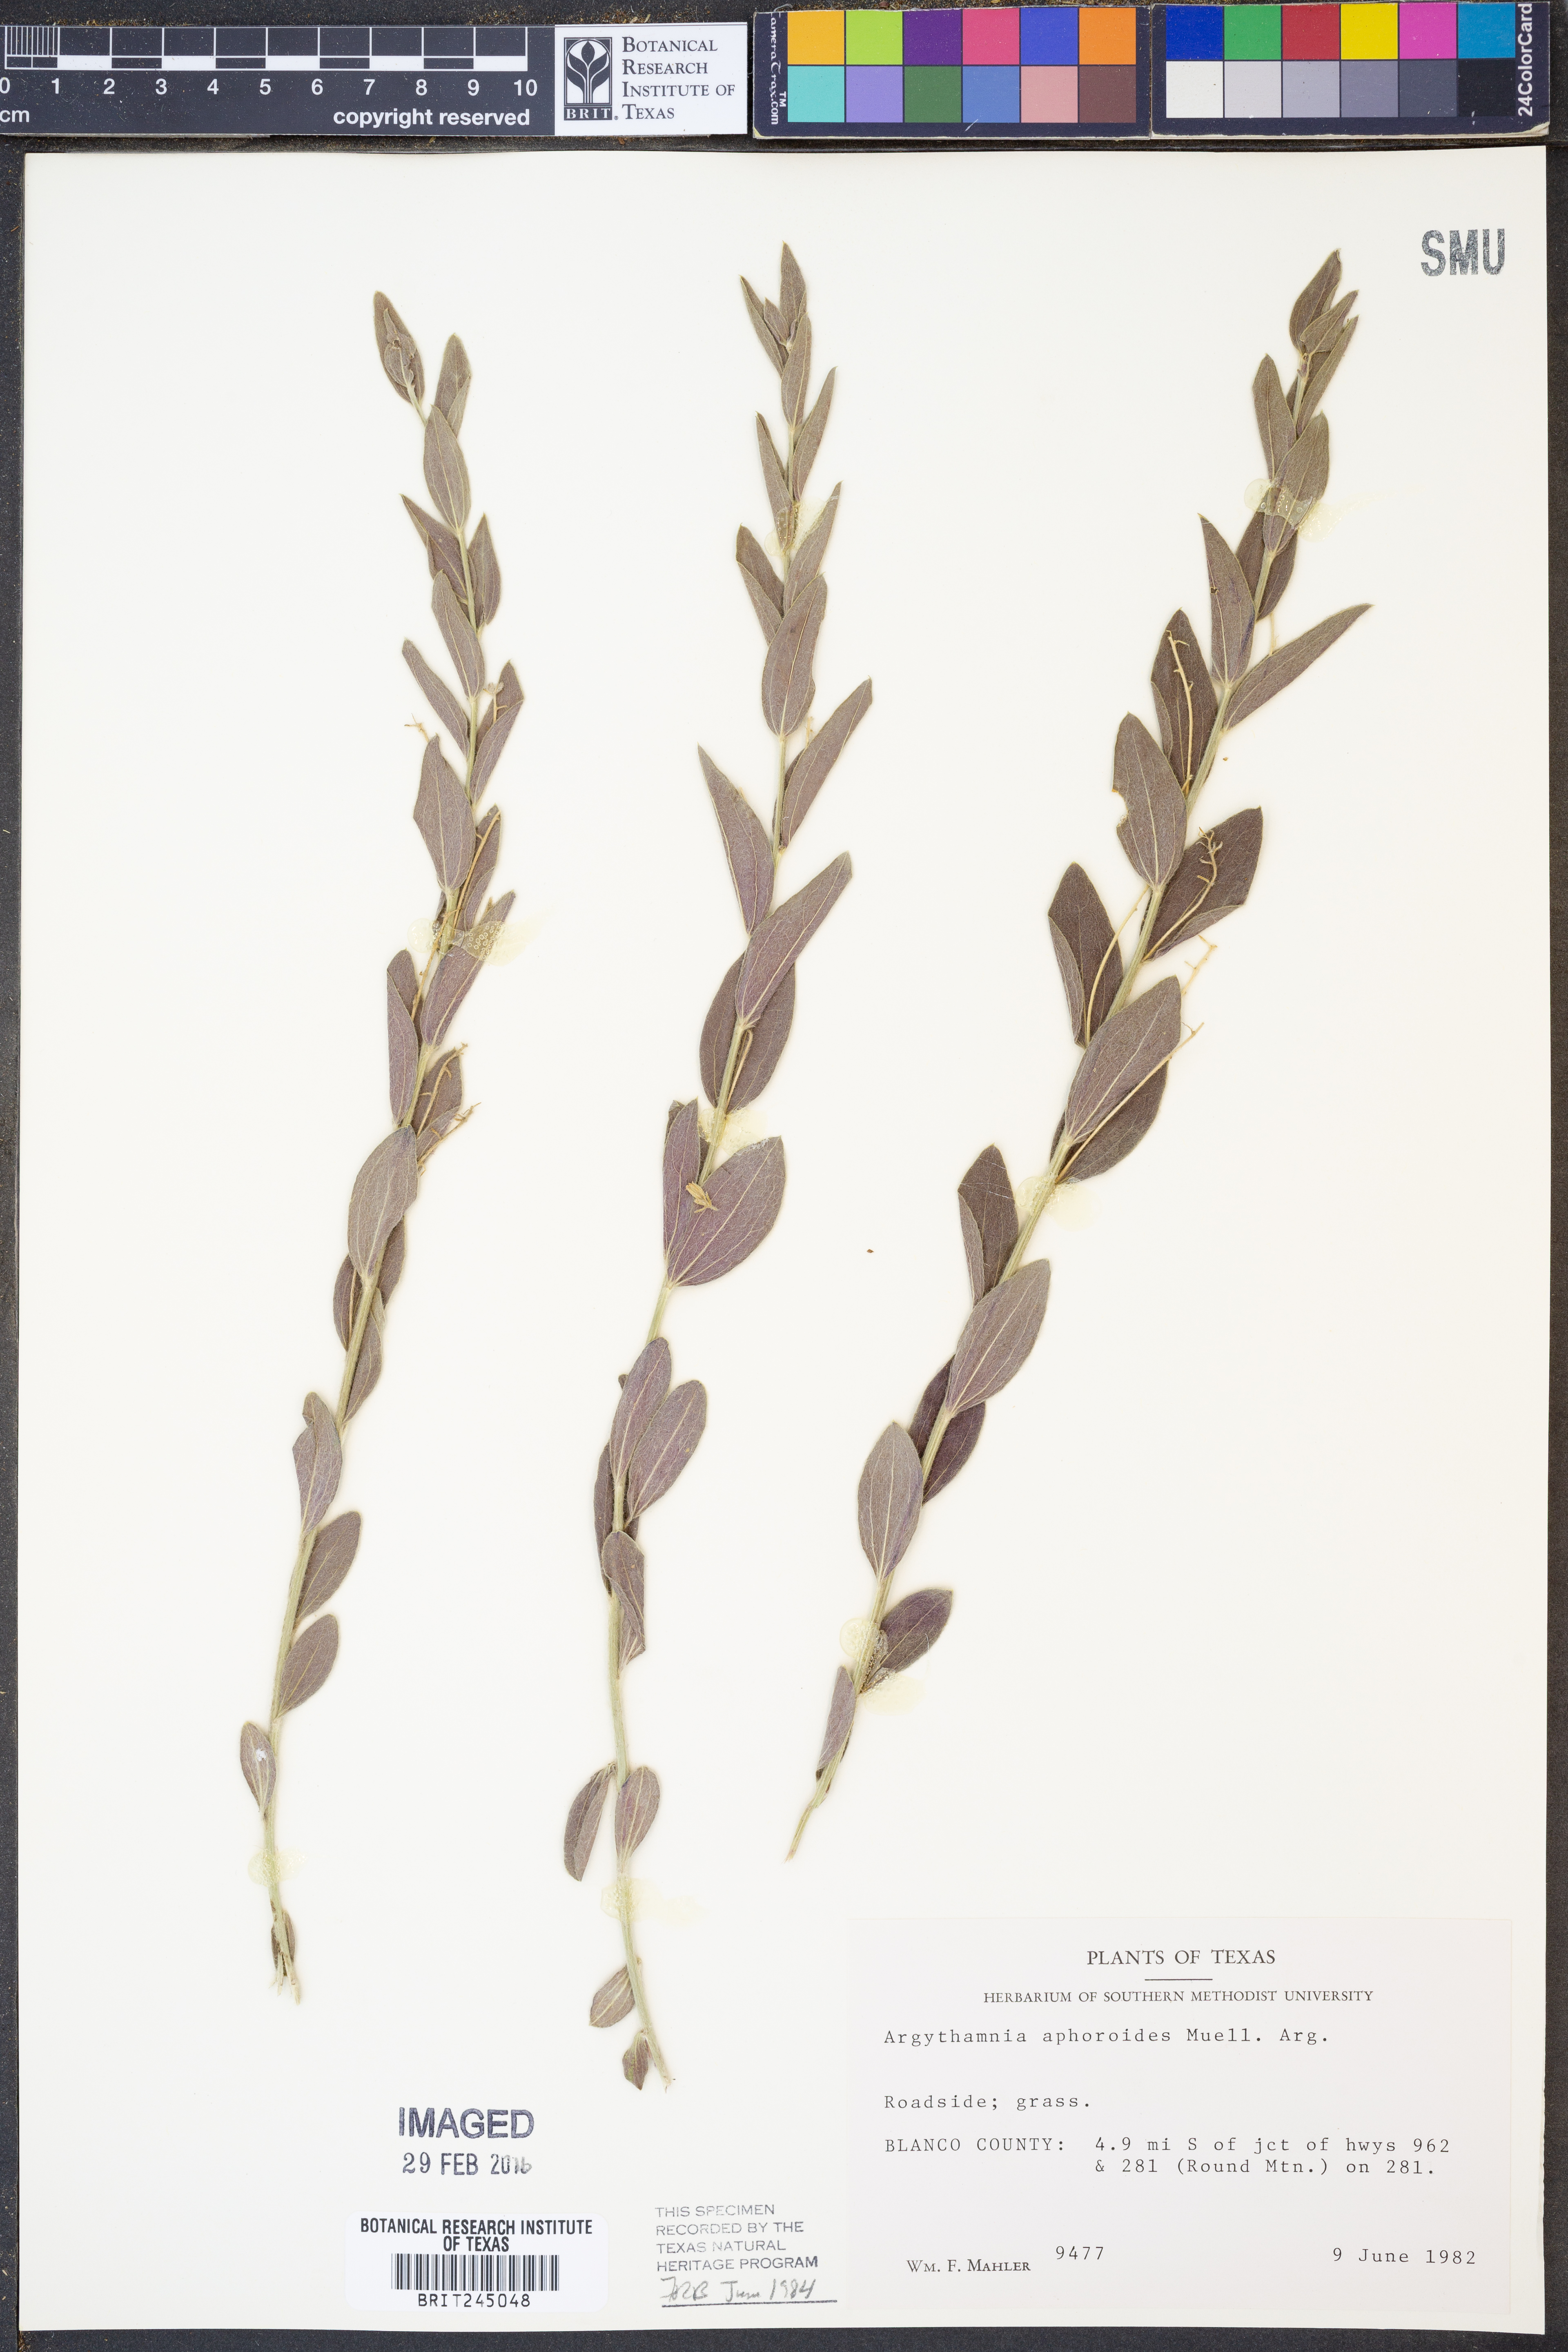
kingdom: Plantae
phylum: Tracheophyta
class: Magnoliopsida
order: Malpighiales
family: Euphorbiaceae
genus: Ditaxis
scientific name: Ditaxis aphoroides
